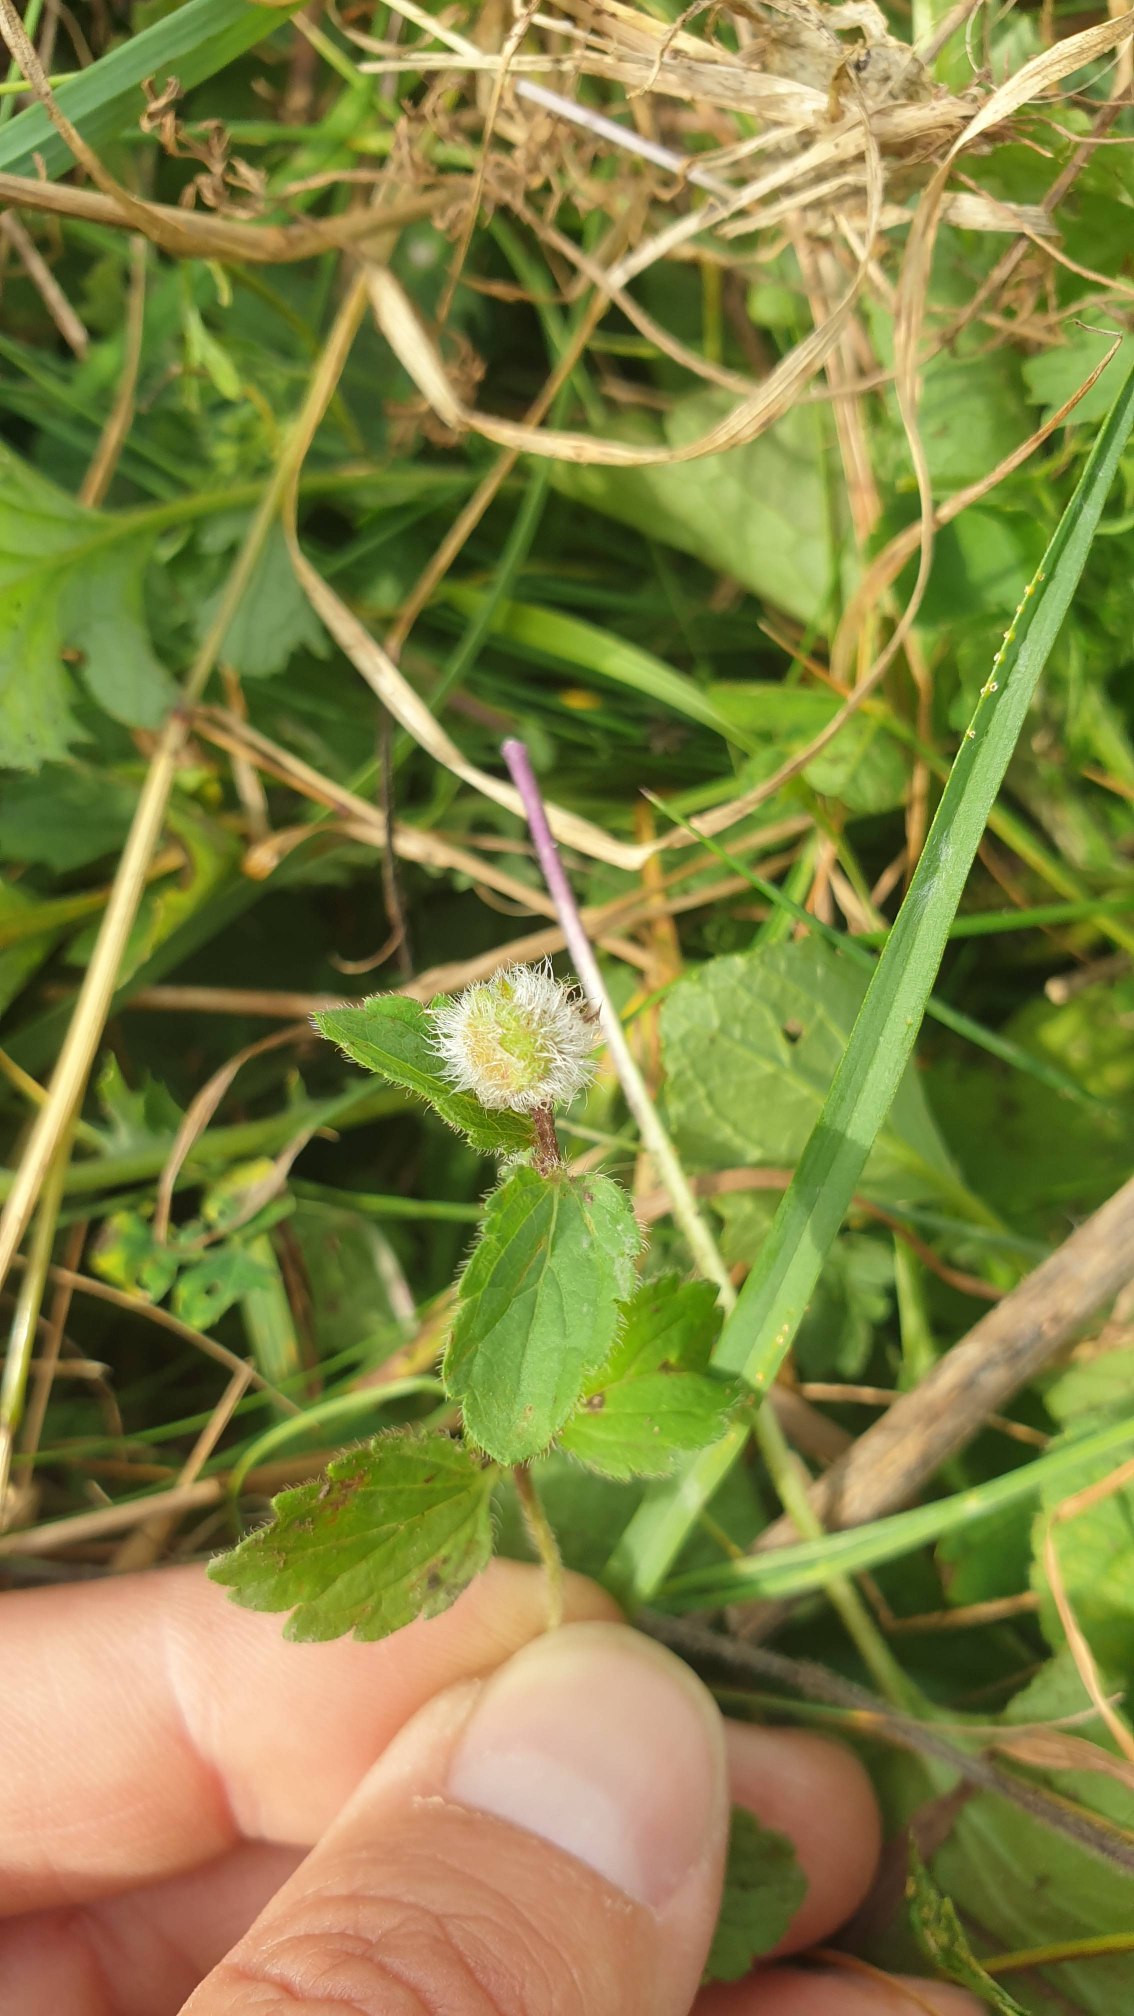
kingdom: Animalia
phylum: Arthropoda
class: Insecta
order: Diptera
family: Cecidomyiidae
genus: Jaapiella
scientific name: Jaapiella veronicae
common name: Ærenprisgalmyg
